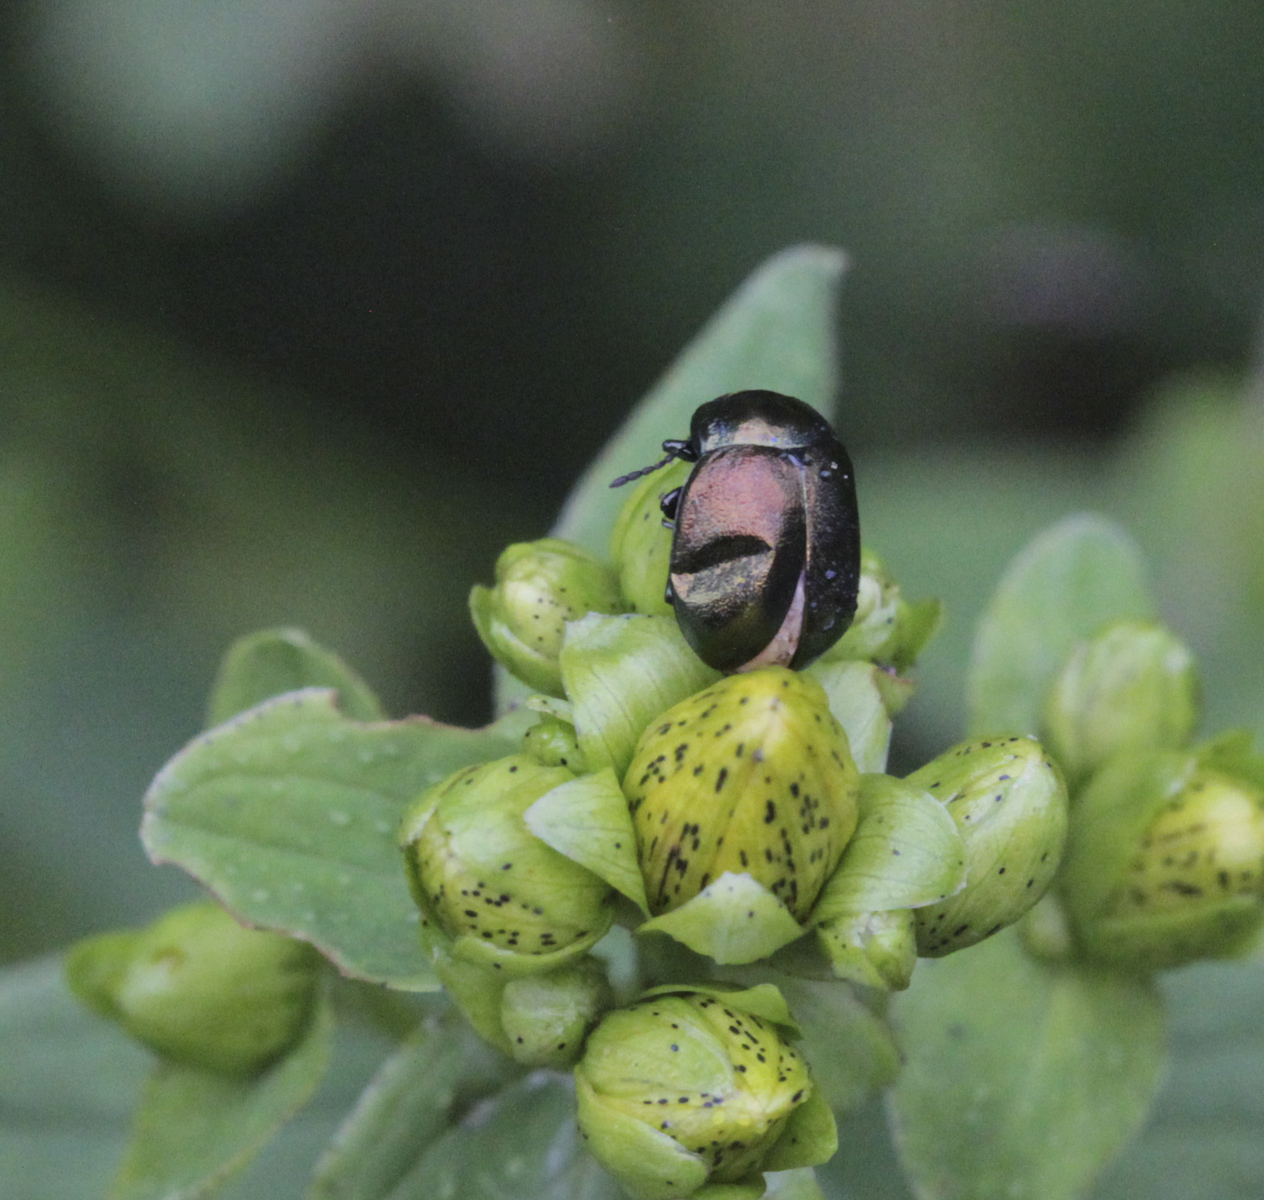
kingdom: Animalia
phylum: Arthropoda
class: Insecta
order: Coleoptera
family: Chrysomelidae
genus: Chrysolina
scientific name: Chrysolina varians
